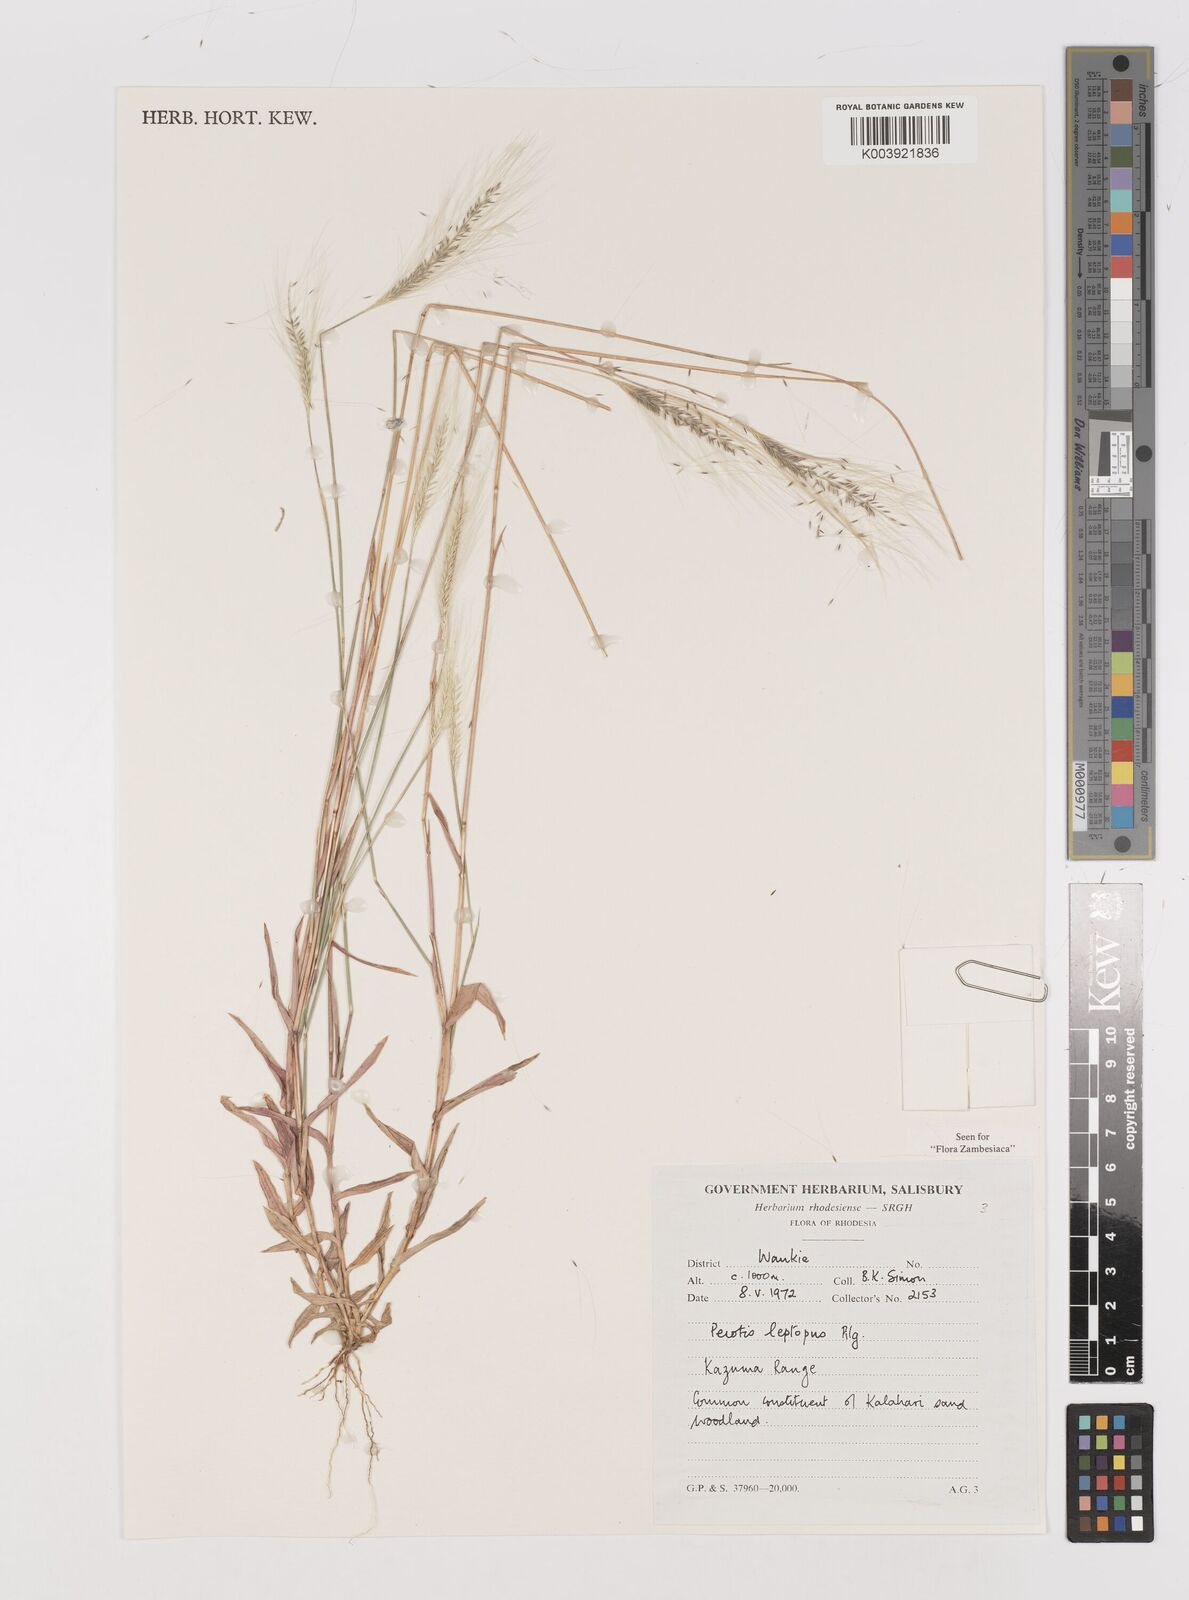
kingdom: Plantae
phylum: Tracheophyta
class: Liliopsida
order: Poales
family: Poaceae
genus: Perotis
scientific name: Perotis leptopus
